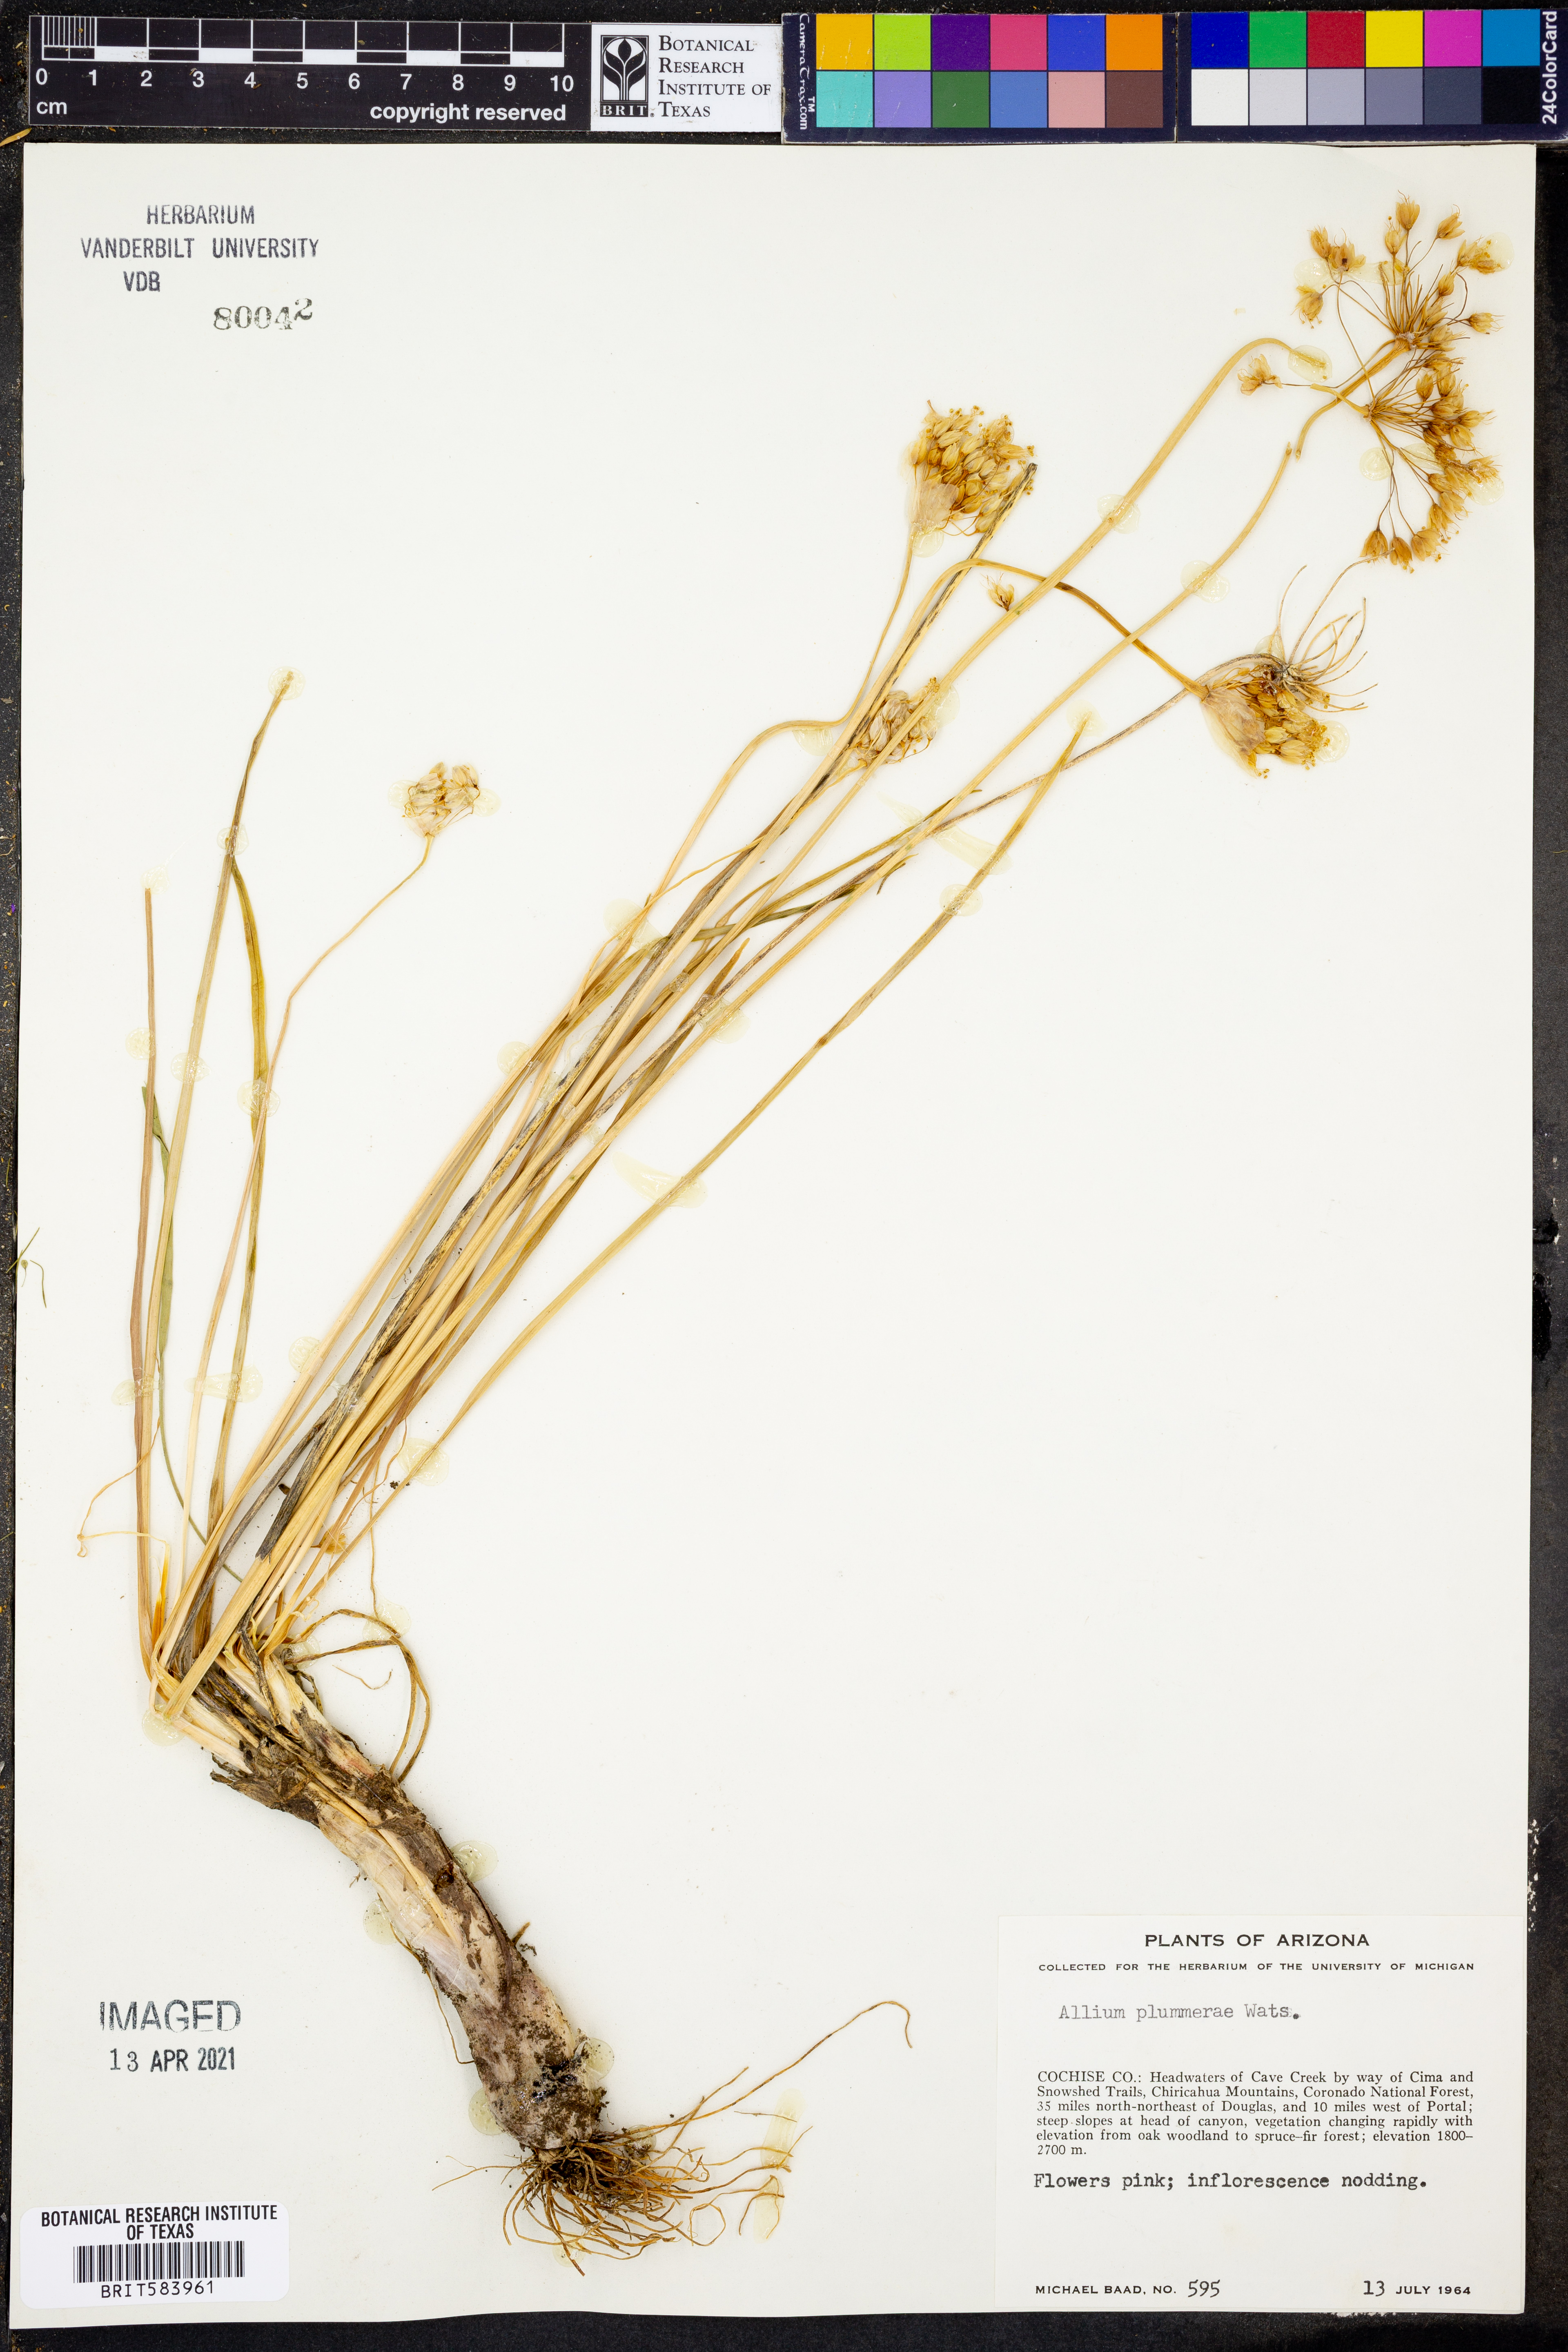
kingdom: Plantae
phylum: Tracheophyta
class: Liliopsida
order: Asparagales
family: Amaryllidaceae
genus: Allium
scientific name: Allium plummerae
